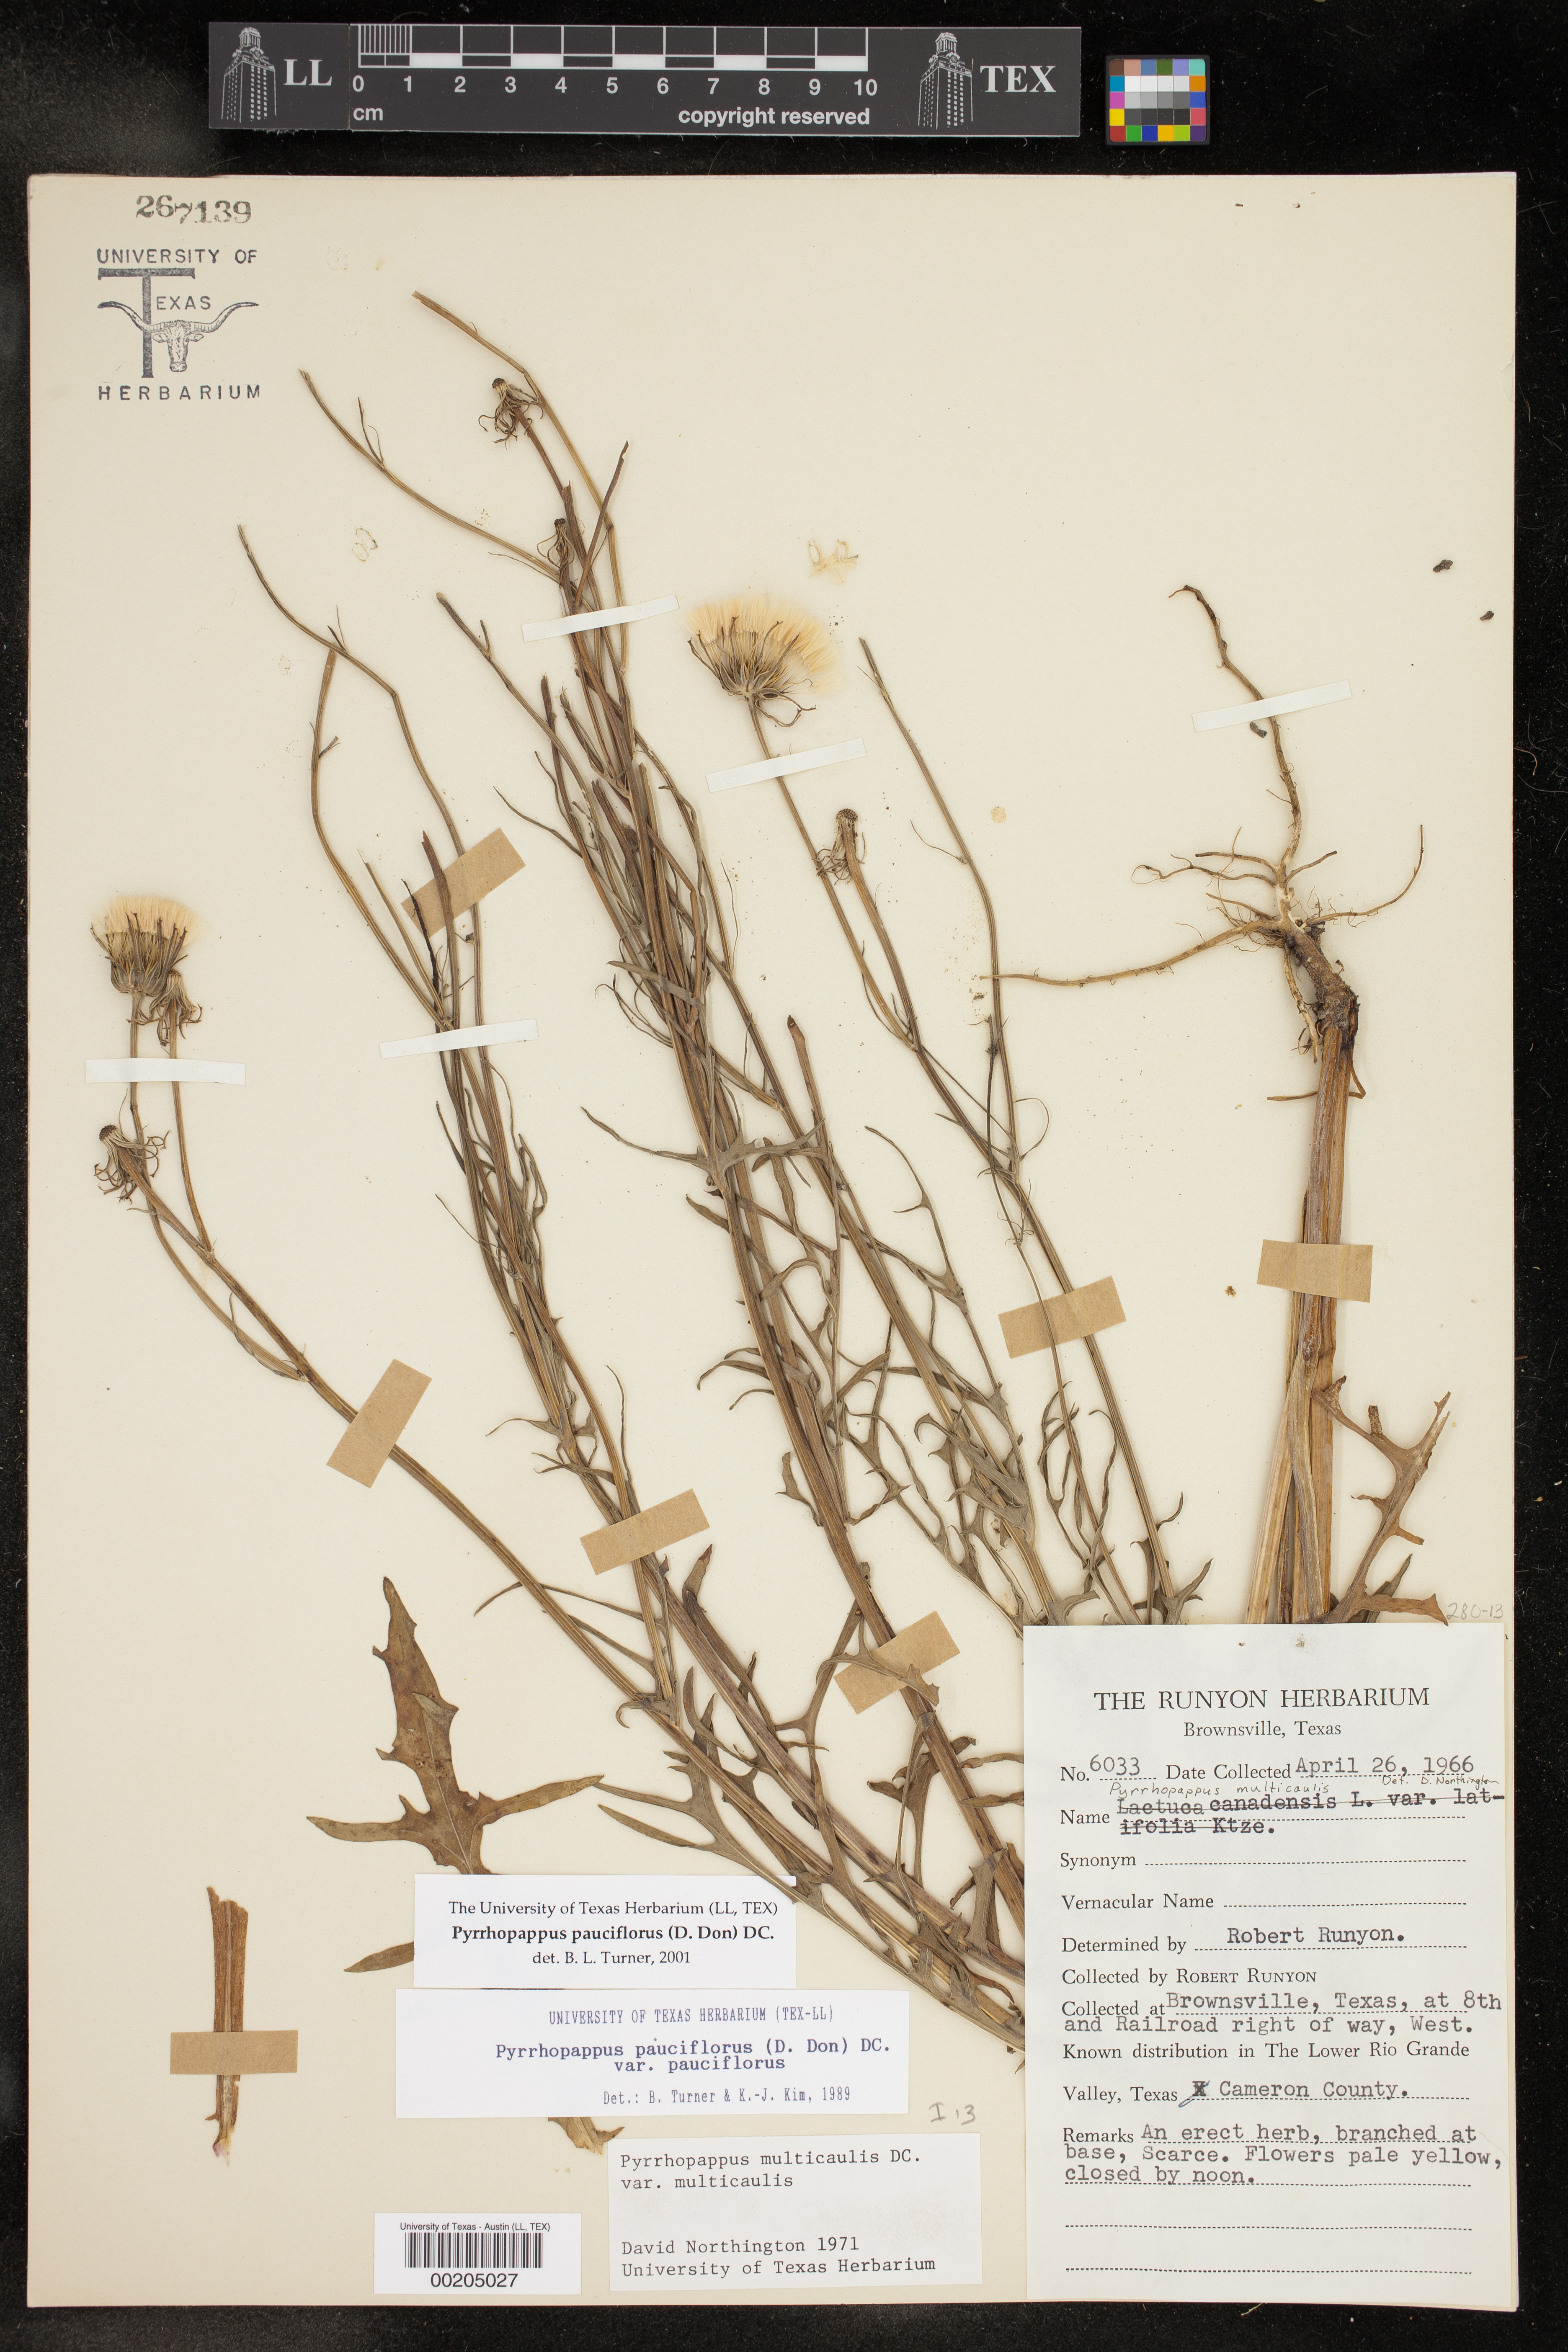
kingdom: Plantae
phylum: Tracheophyta
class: Magnoliopsida
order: Asterales
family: Asteraceae
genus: Pyrrhopappus
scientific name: Pyrrhopappus pauciflorus
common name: Texas false dandelion
